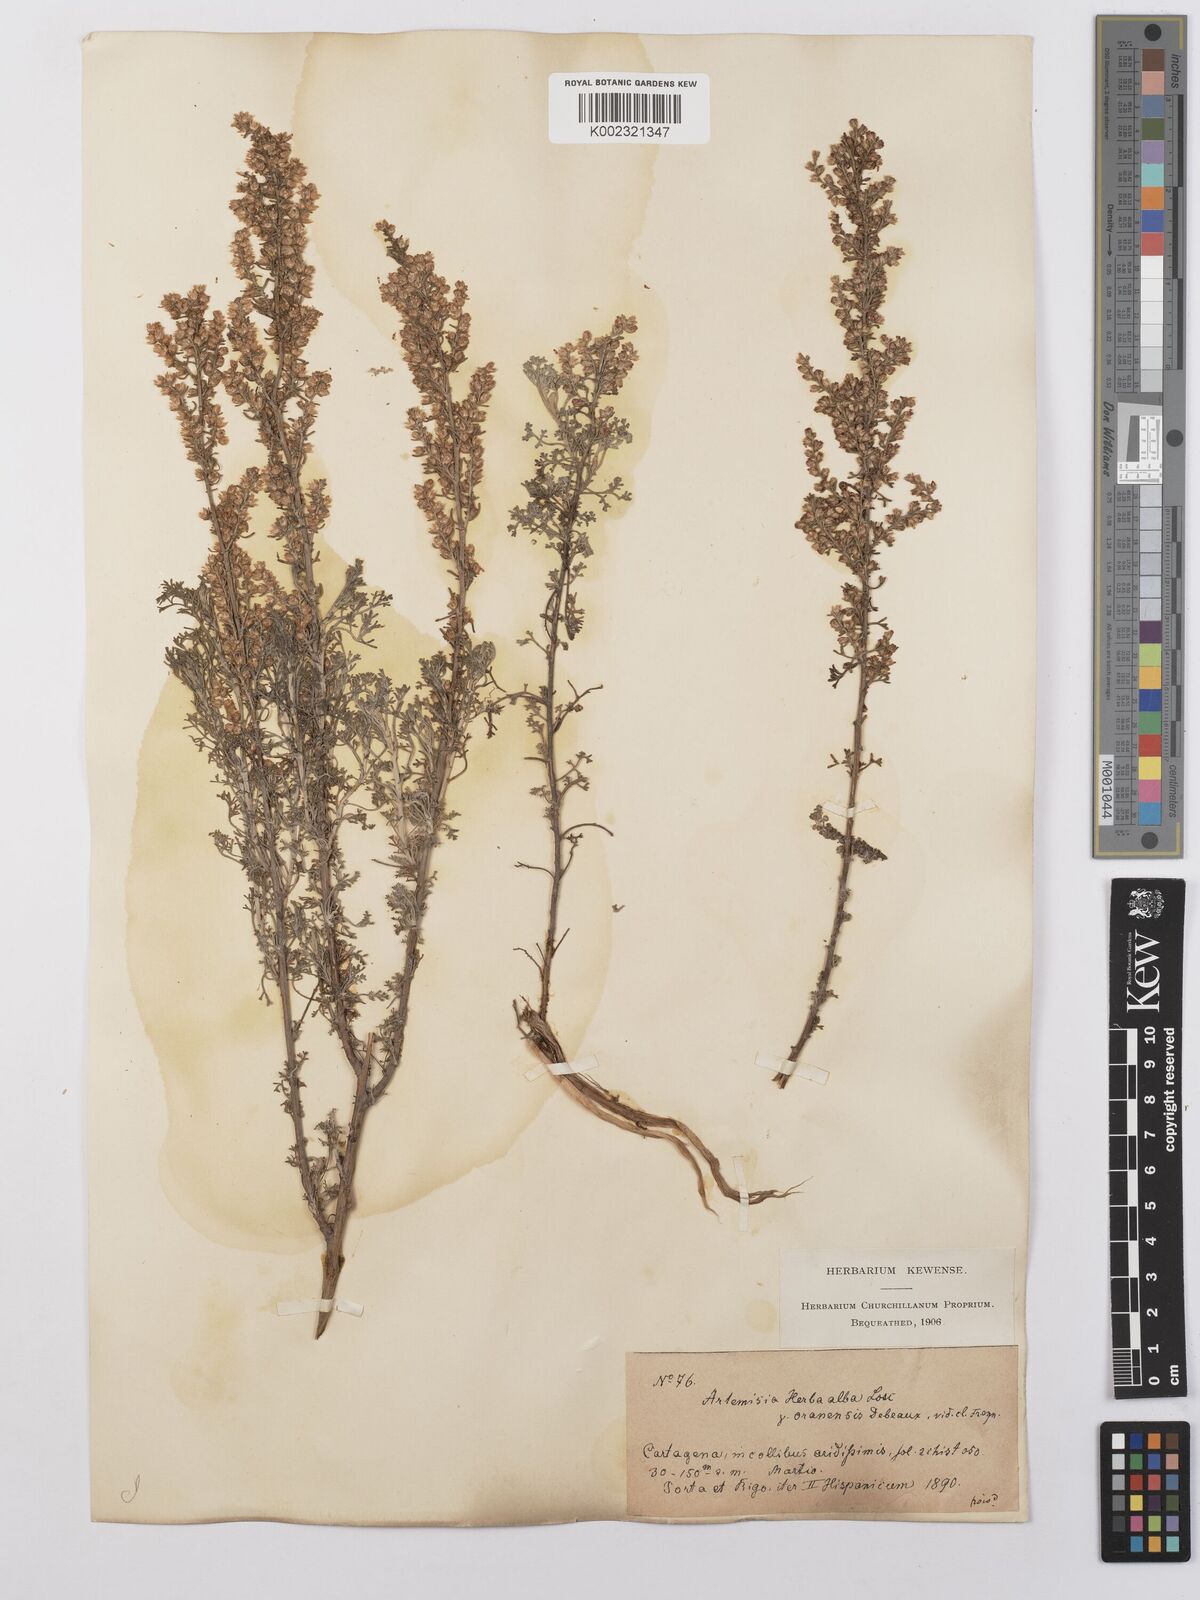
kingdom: Plantae
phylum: Tracheophyta
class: Magnoliopsida
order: Asterales
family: Asteraceae
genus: Artemisia
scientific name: Artemisia herba-alba
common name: White wormwood
